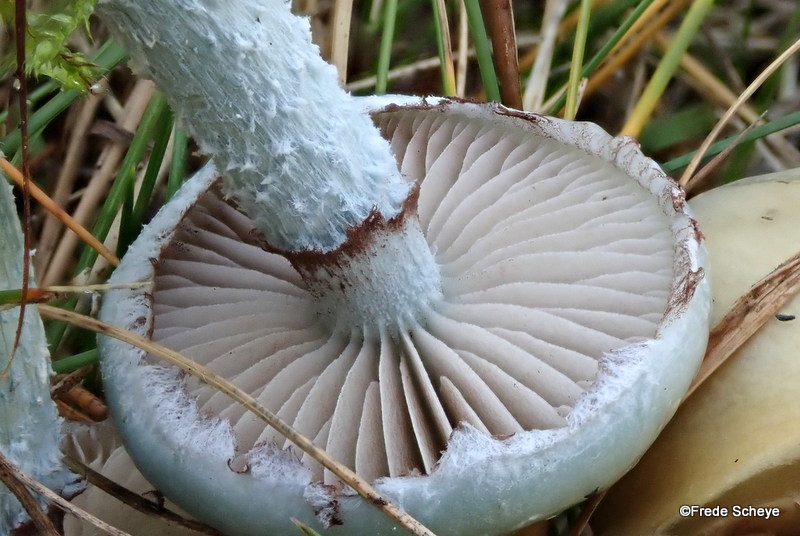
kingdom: Fungi
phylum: Basidiomycota
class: Agaricomycetes
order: Agaricales
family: Strophariaceae
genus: Stropharia
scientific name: Stropharia cyanea
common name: blågrøn bredblad
